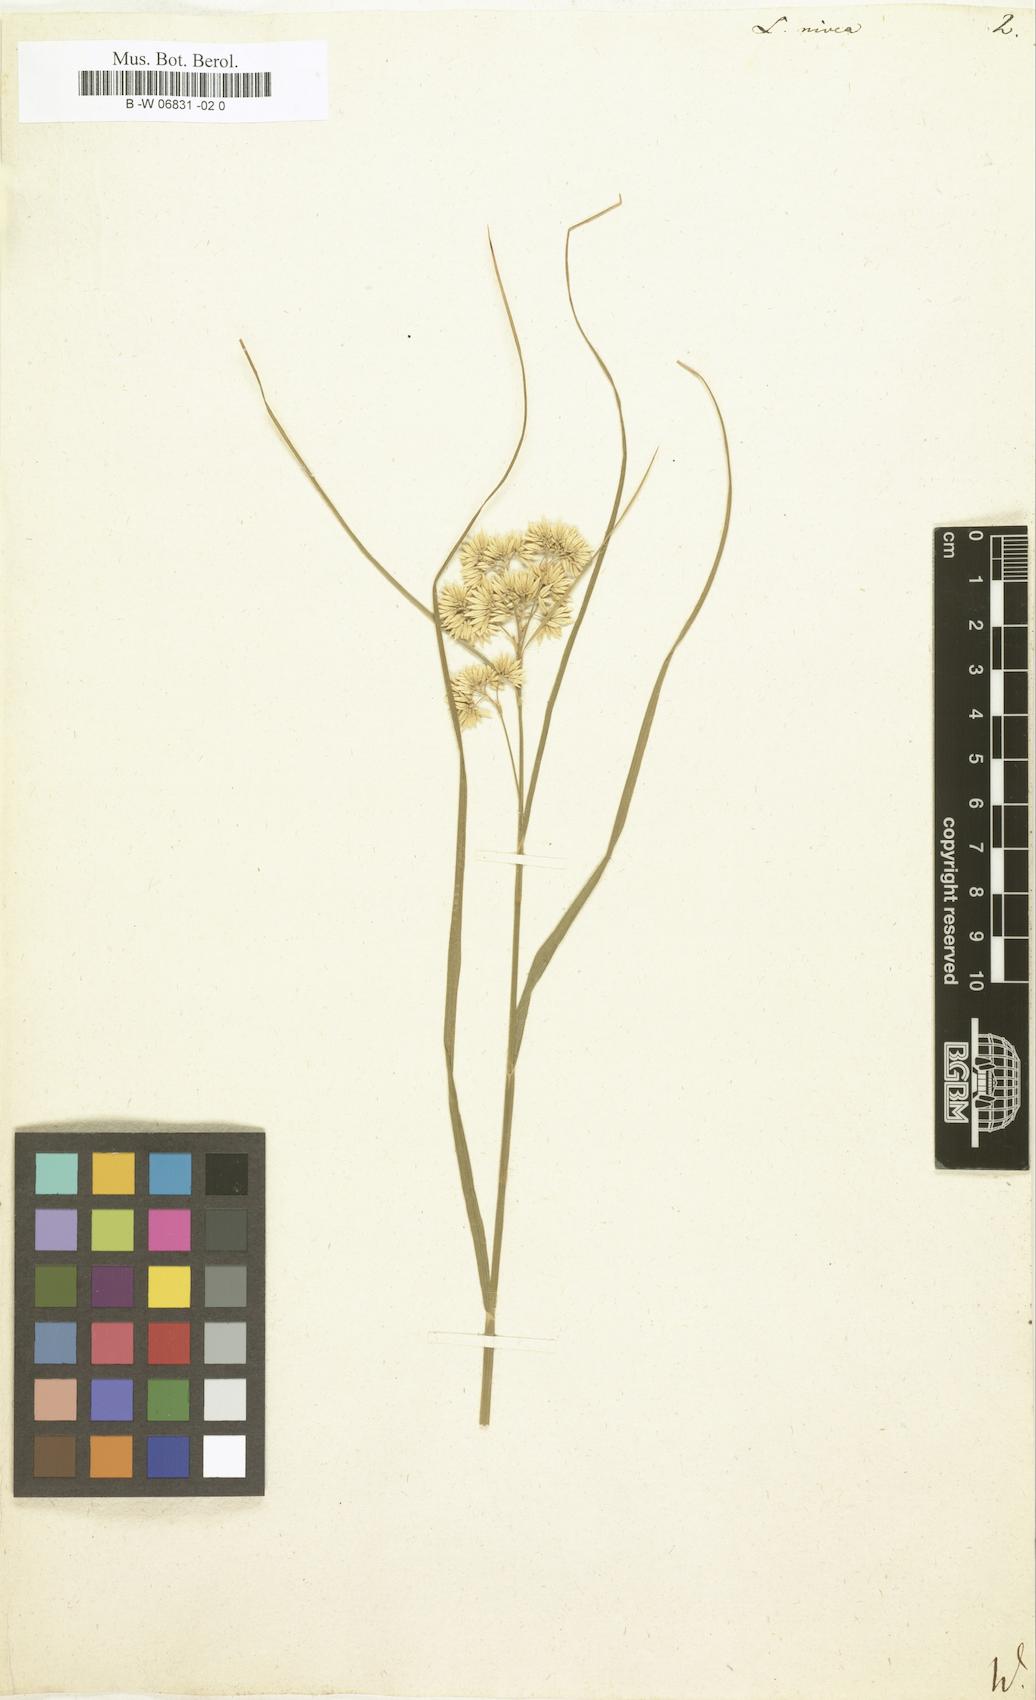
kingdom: Plantae
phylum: Tracheophyta
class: Liliopsida
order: Poales
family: Juncaceae
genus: Luzula
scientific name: Luzula nivea
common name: Snow-white wood-rush
